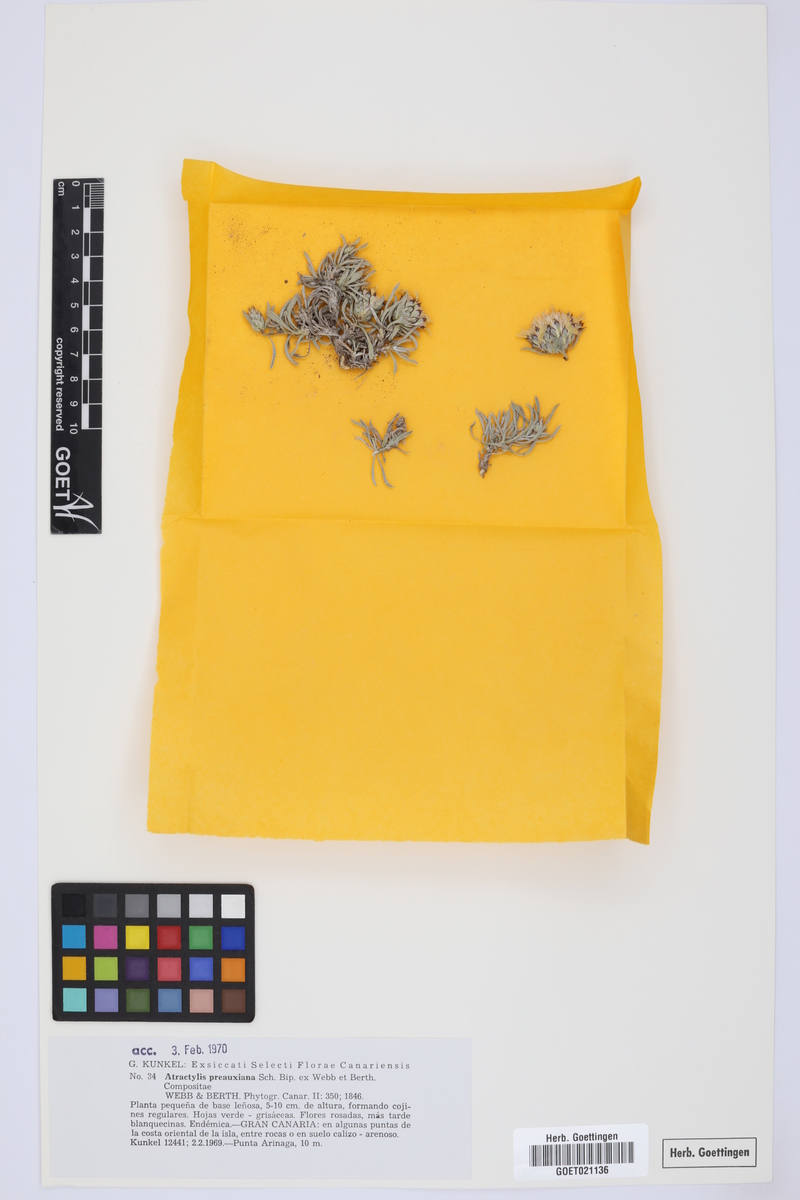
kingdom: Plantae
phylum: Tracheophyta
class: Magnoliopsida
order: Asterales
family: Asteraceae
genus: Atractylis
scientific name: Atractylis preauxiana
